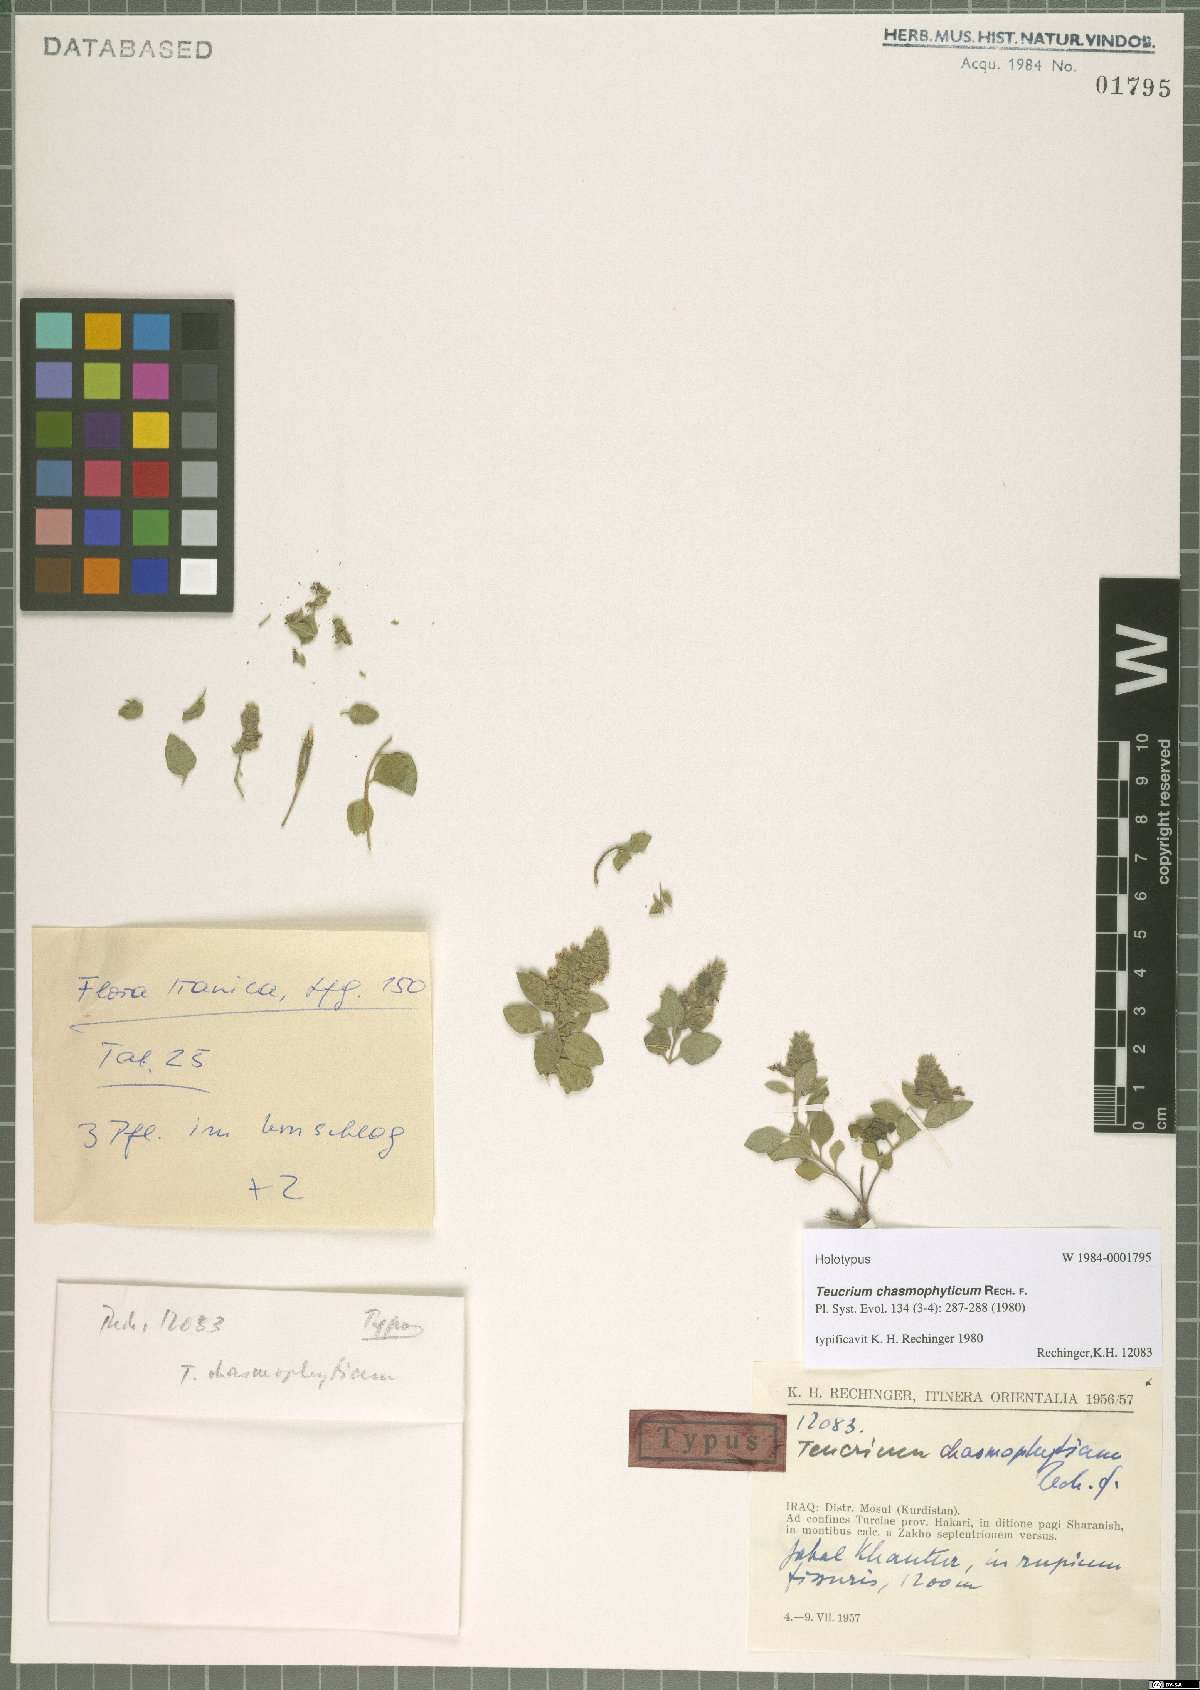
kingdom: Plantae
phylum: Tracheophyta
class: Magnoliopsida
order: Lamiales
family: Lamiaceae
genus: Teucrium
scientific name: Teucrium chasmophyticum
